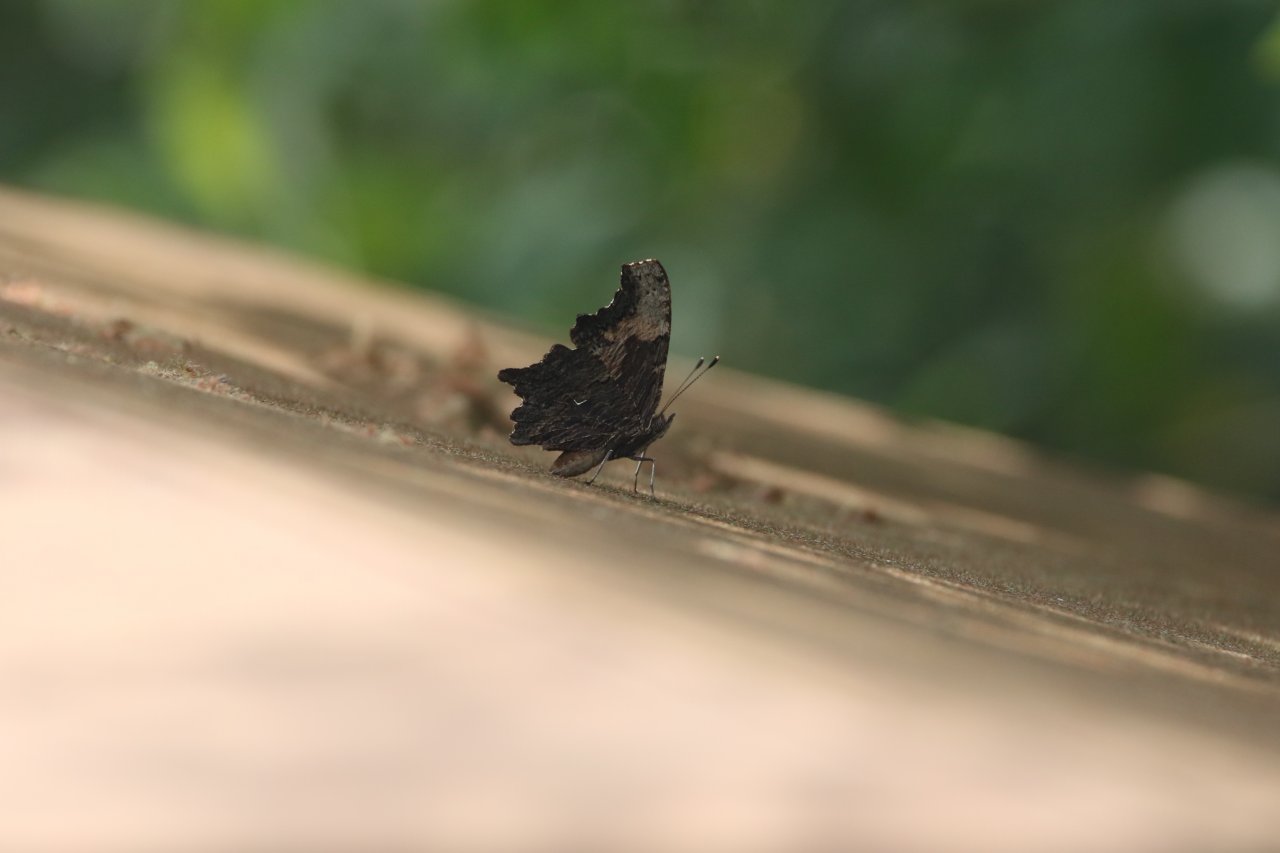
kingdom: Animalia
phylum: Arthropoda
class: Insecta
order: Lepidoptera
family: Nymphalidae
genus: Polygonia
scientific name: Polygonia progne
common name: Gray Comma
